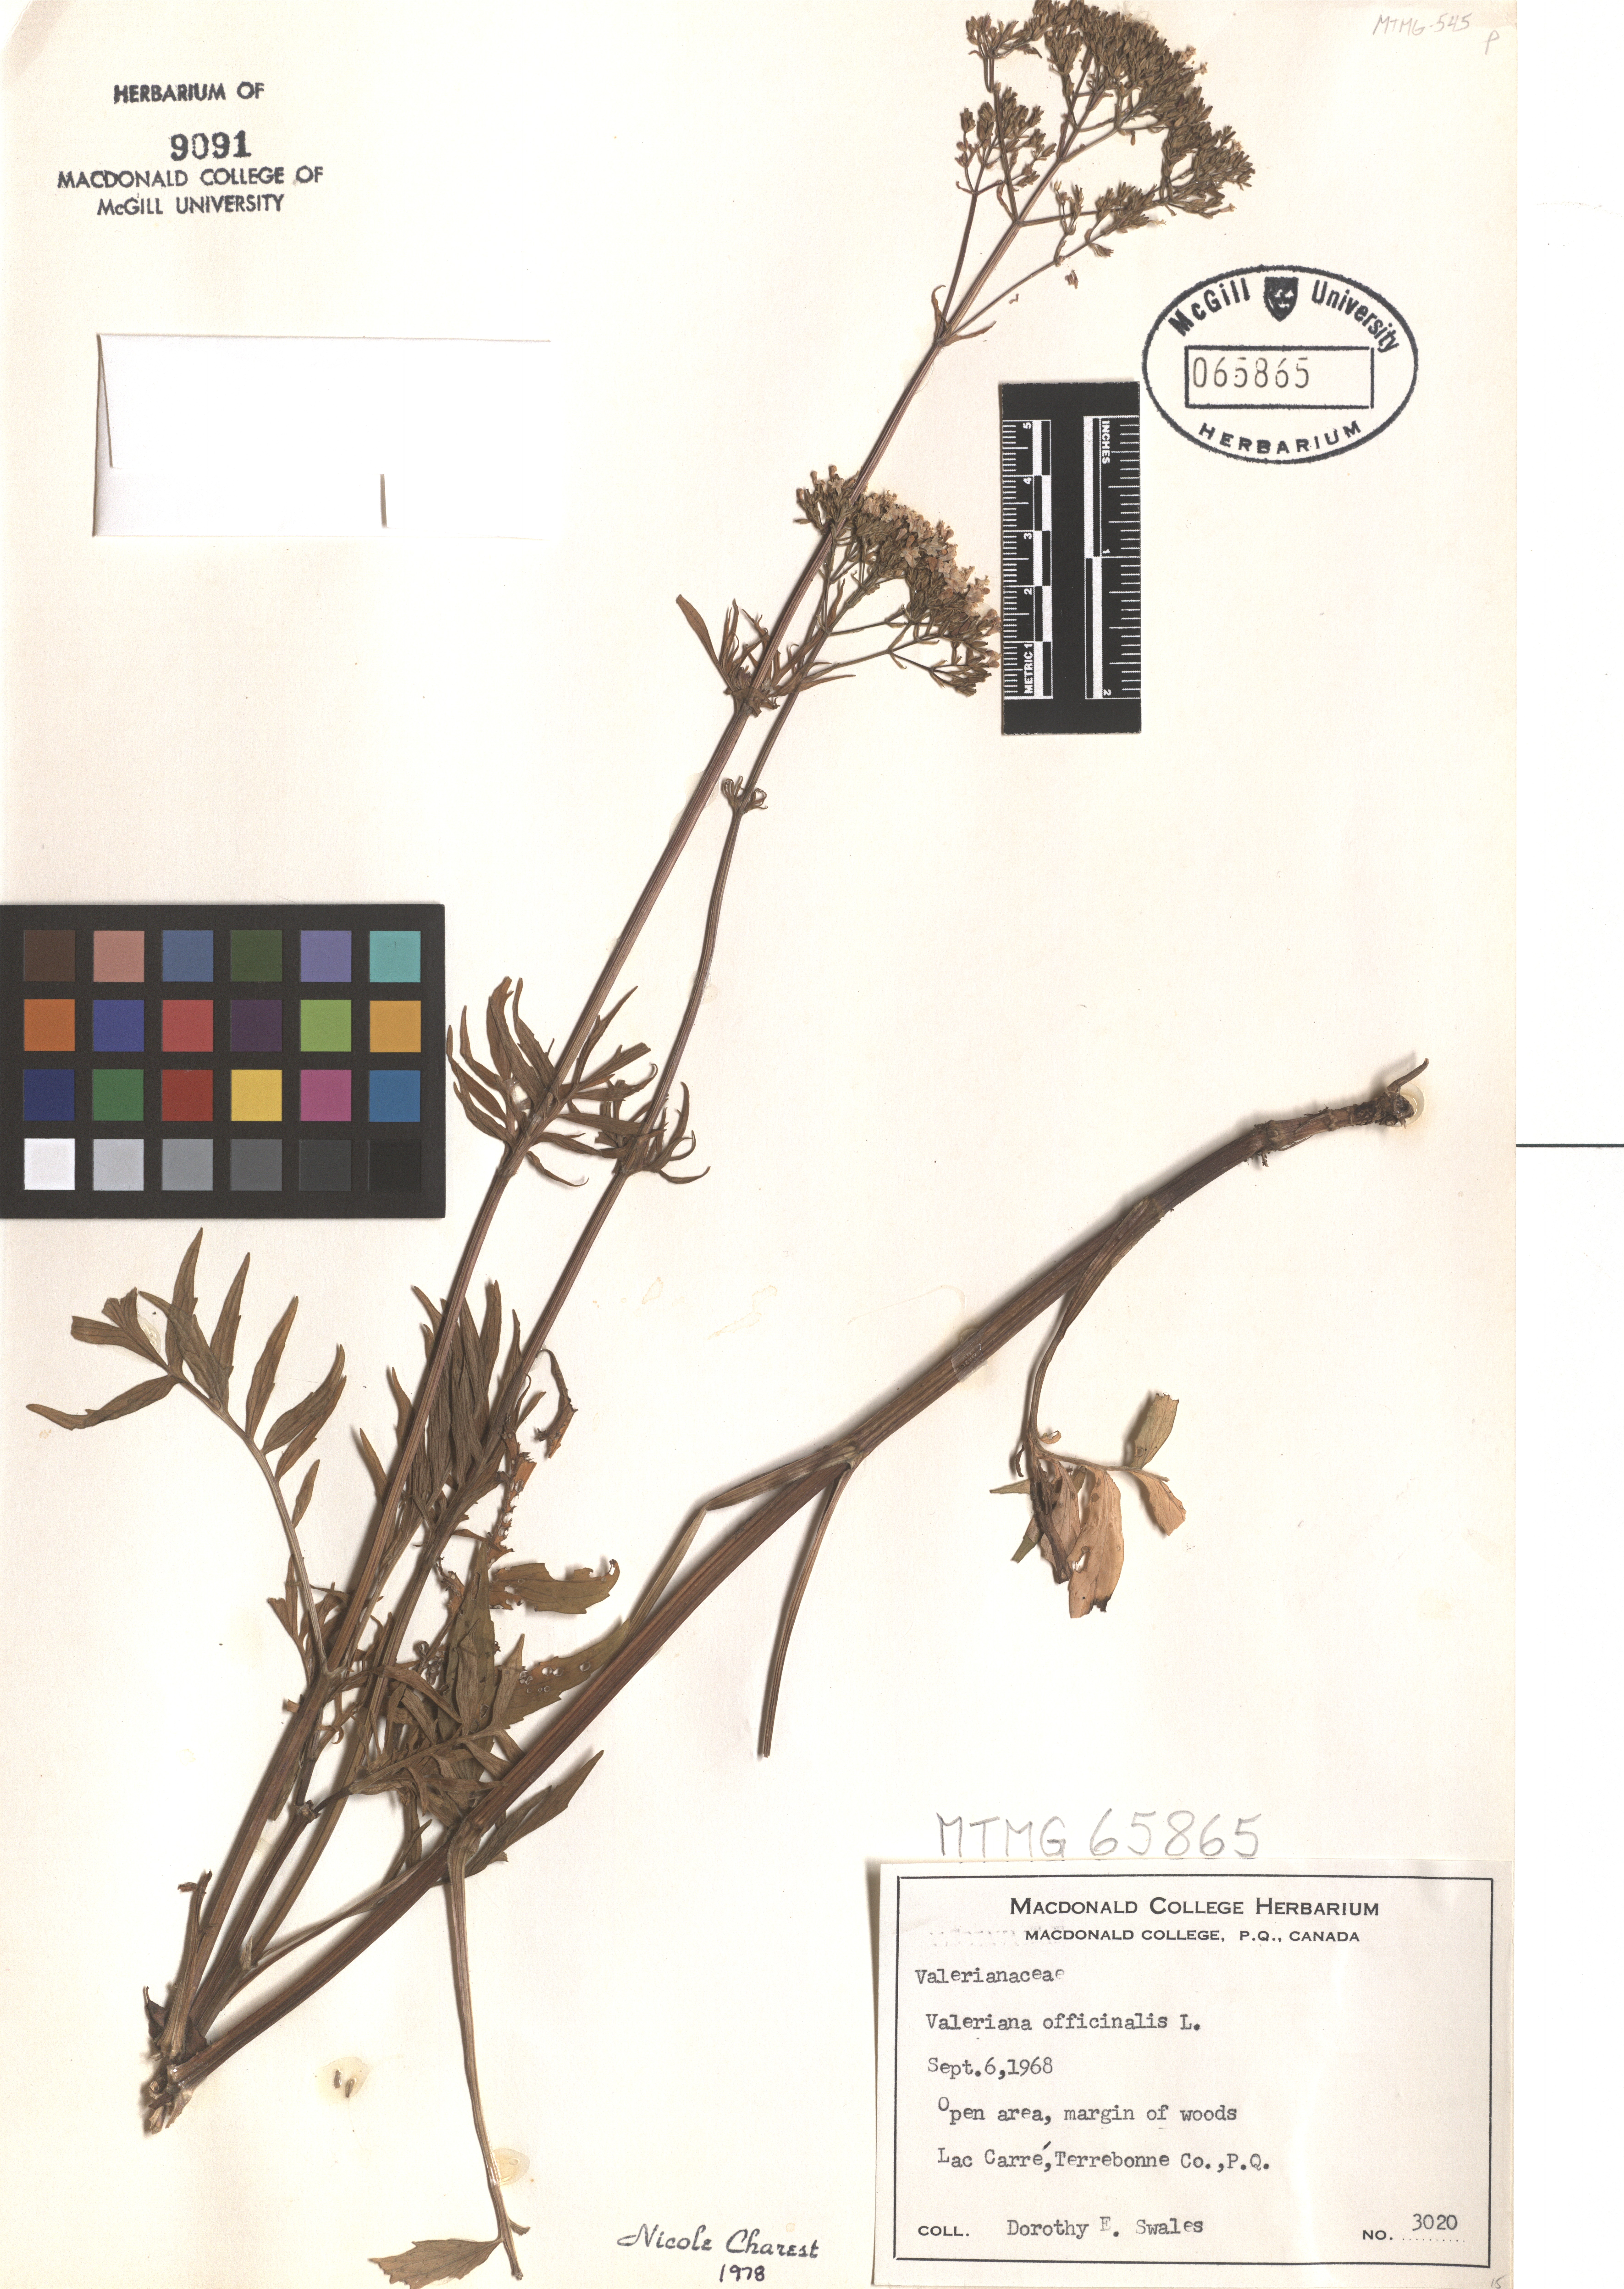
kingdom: Plantae
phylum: Tracheophyta
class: Magnoliopsida
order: Dipsacales
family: Caprifoliaceae
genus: Valeriana
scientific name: Valeriana officinalis
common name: Common valerian
